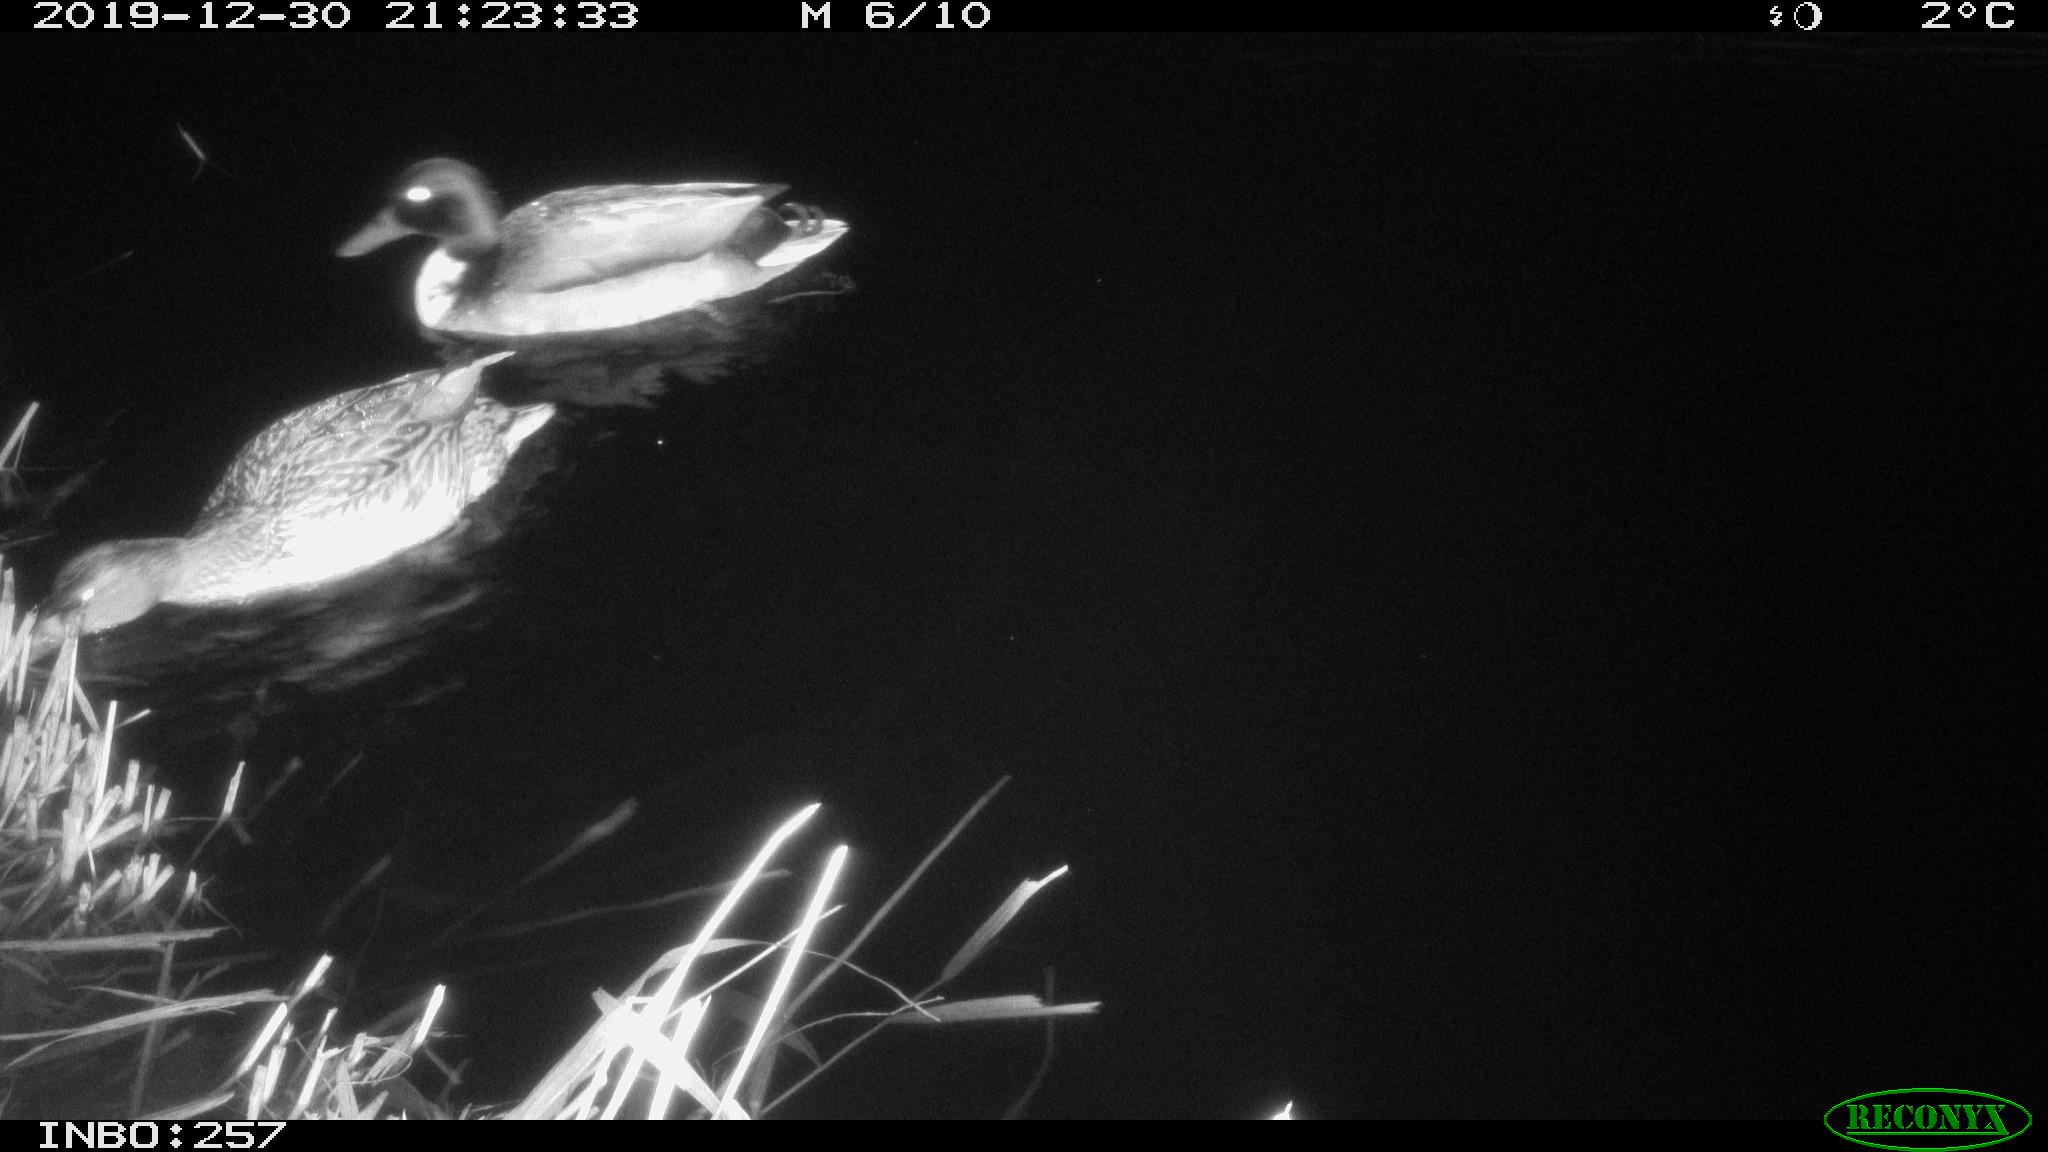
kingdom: Animalia
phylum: Chordata
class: Aves
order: Anseriformes
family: Anatidae
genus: Anas
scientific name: Anas platyrhynchos
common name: Mallard
